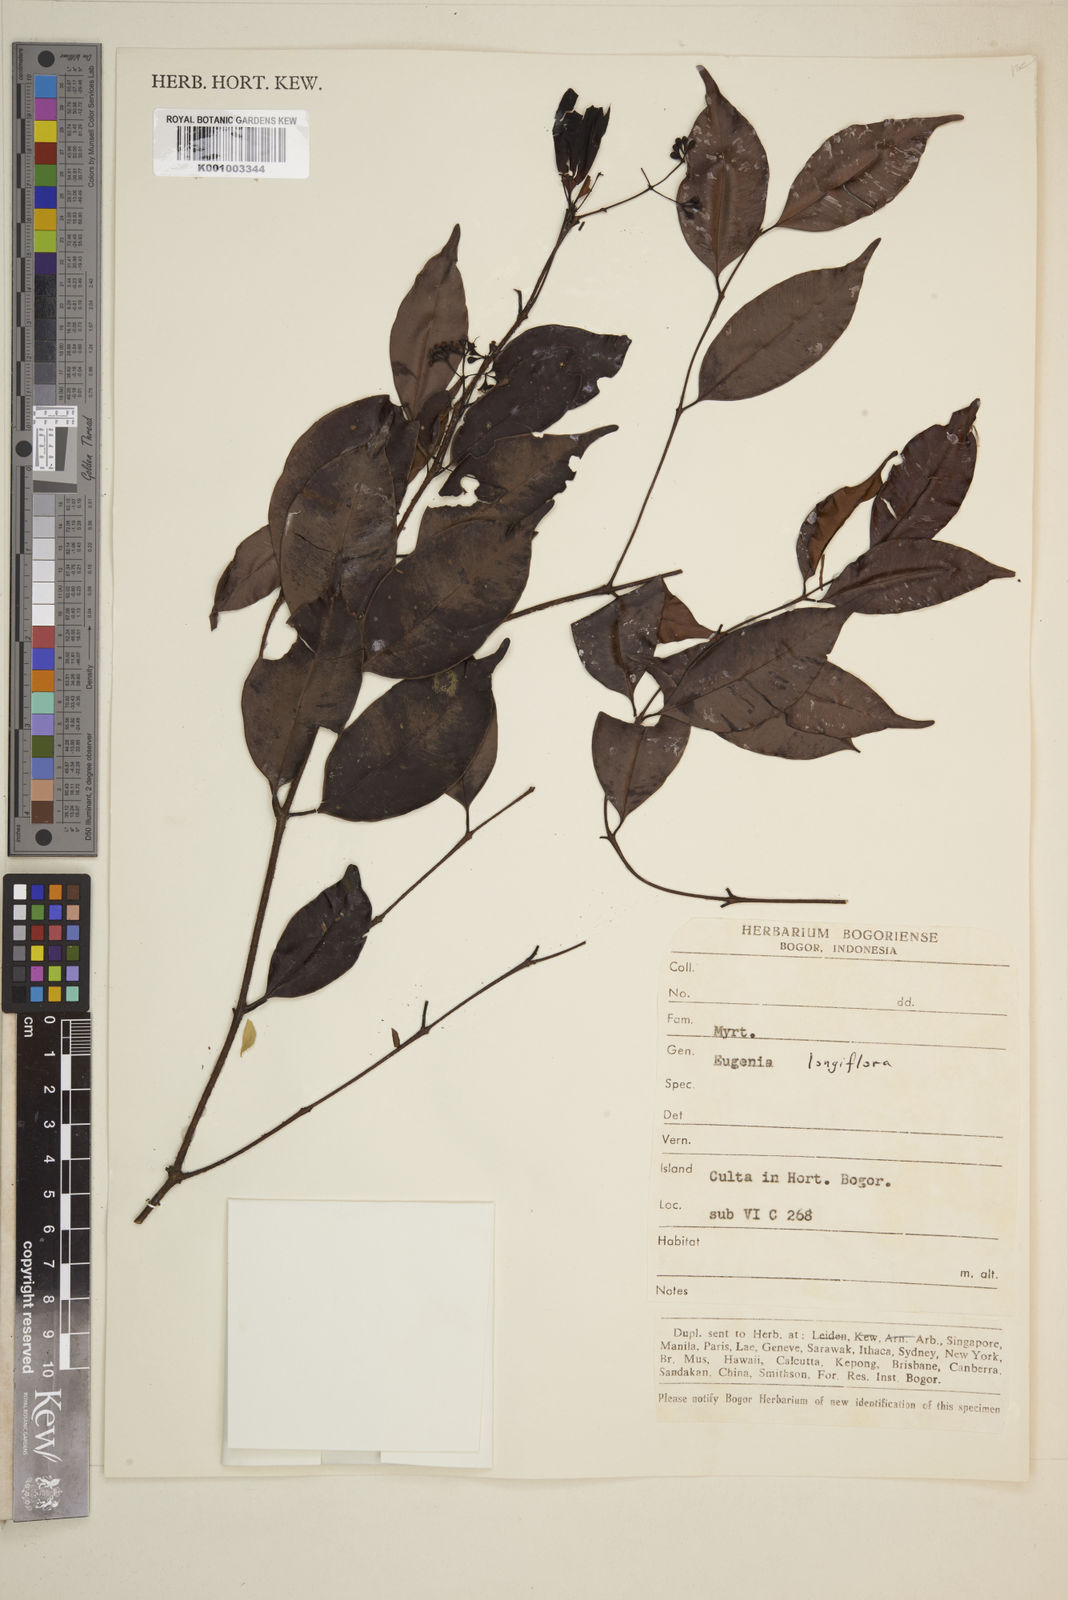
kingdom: Plantae
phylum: Tracheophyta
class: Magnoliopsida
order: Myrtales
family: Myrtaceae
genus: Syzygium
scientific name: Syzygium lineatum
